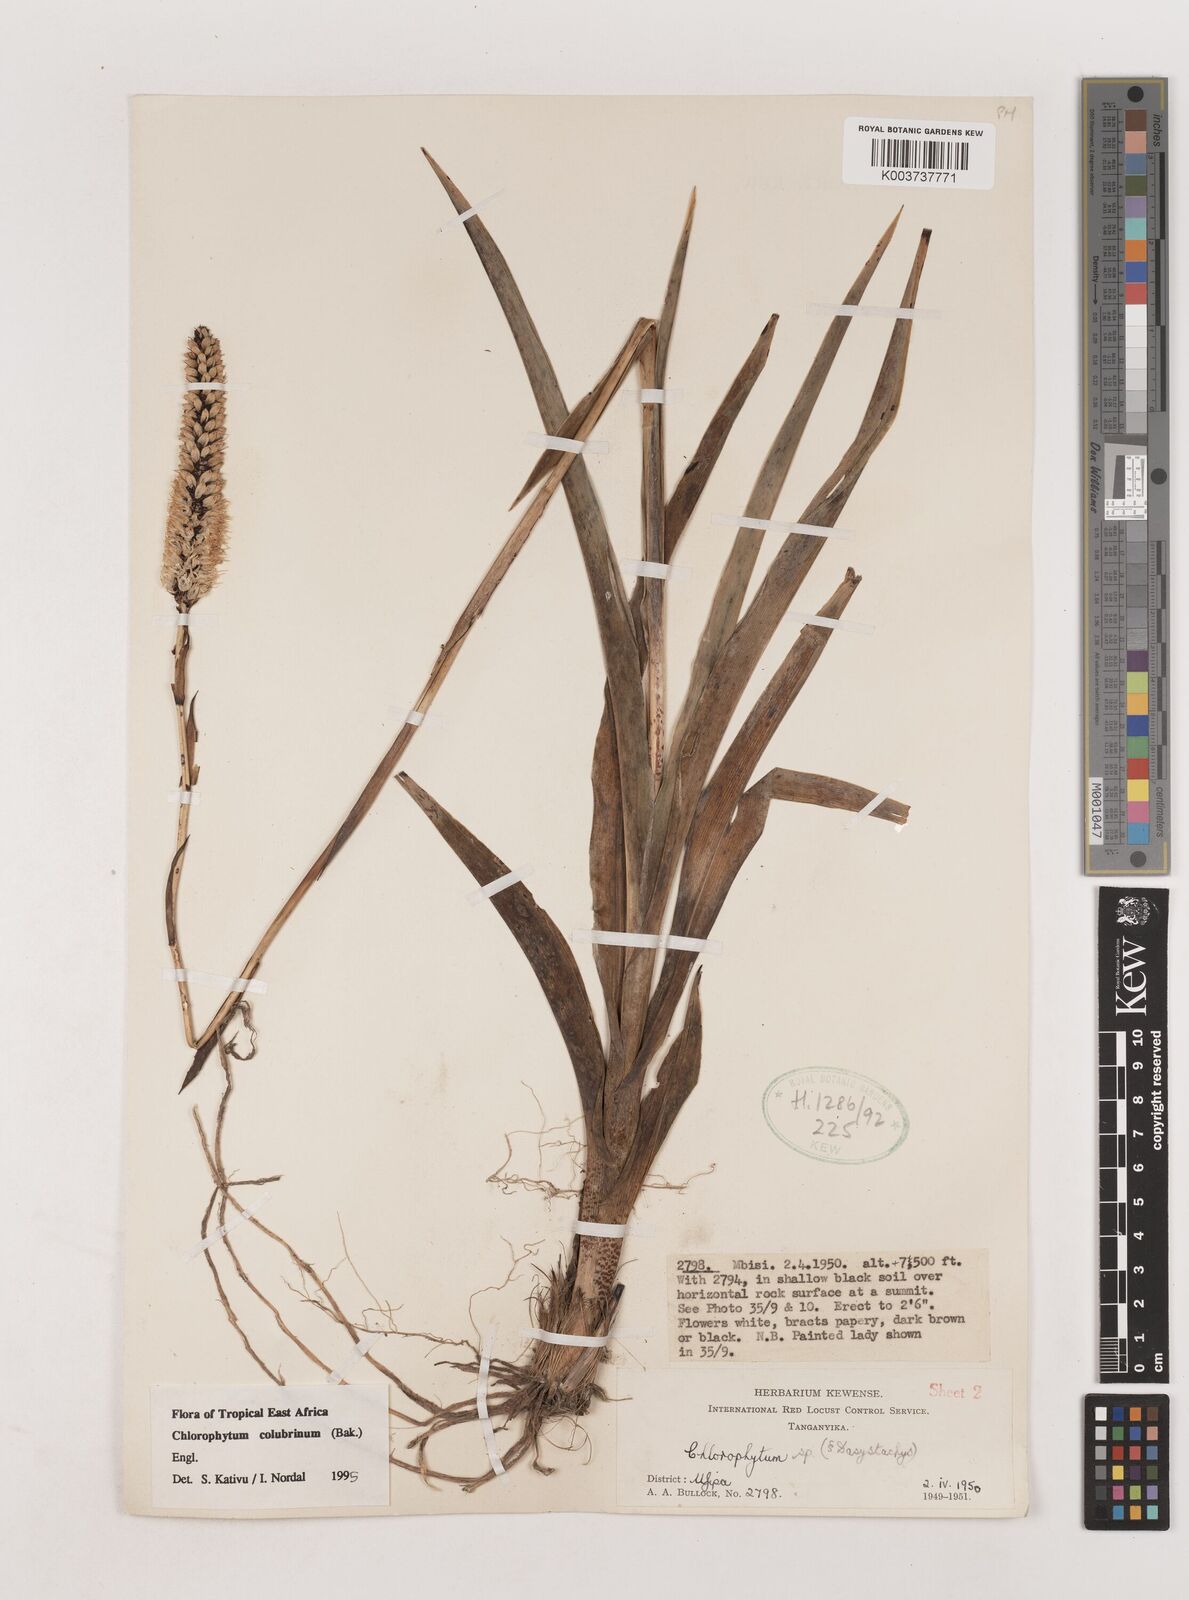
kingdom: Plantae
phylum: Tracheophyta
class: Liliopsida
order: Asparagales
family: Asparagaceae
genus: Chlorophytum
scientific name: Chlorophytum colubrinum
